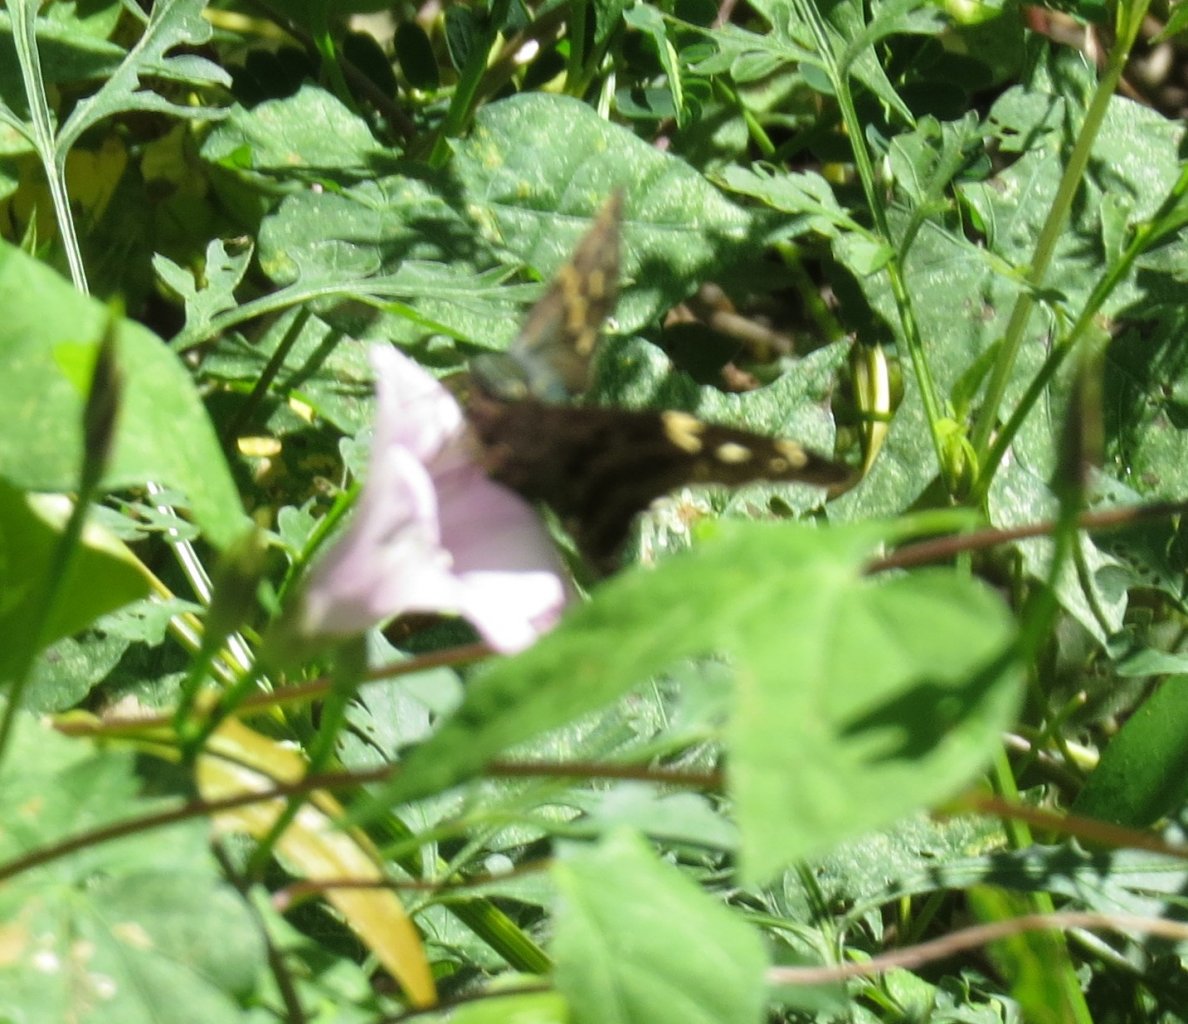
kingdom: Animalia
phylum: Arthropoda
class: Insecta
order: Lepidoptera
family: Hesperiidae
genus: Urbanus
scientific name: Urbanus proteus
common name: Long-tailed Skipper
